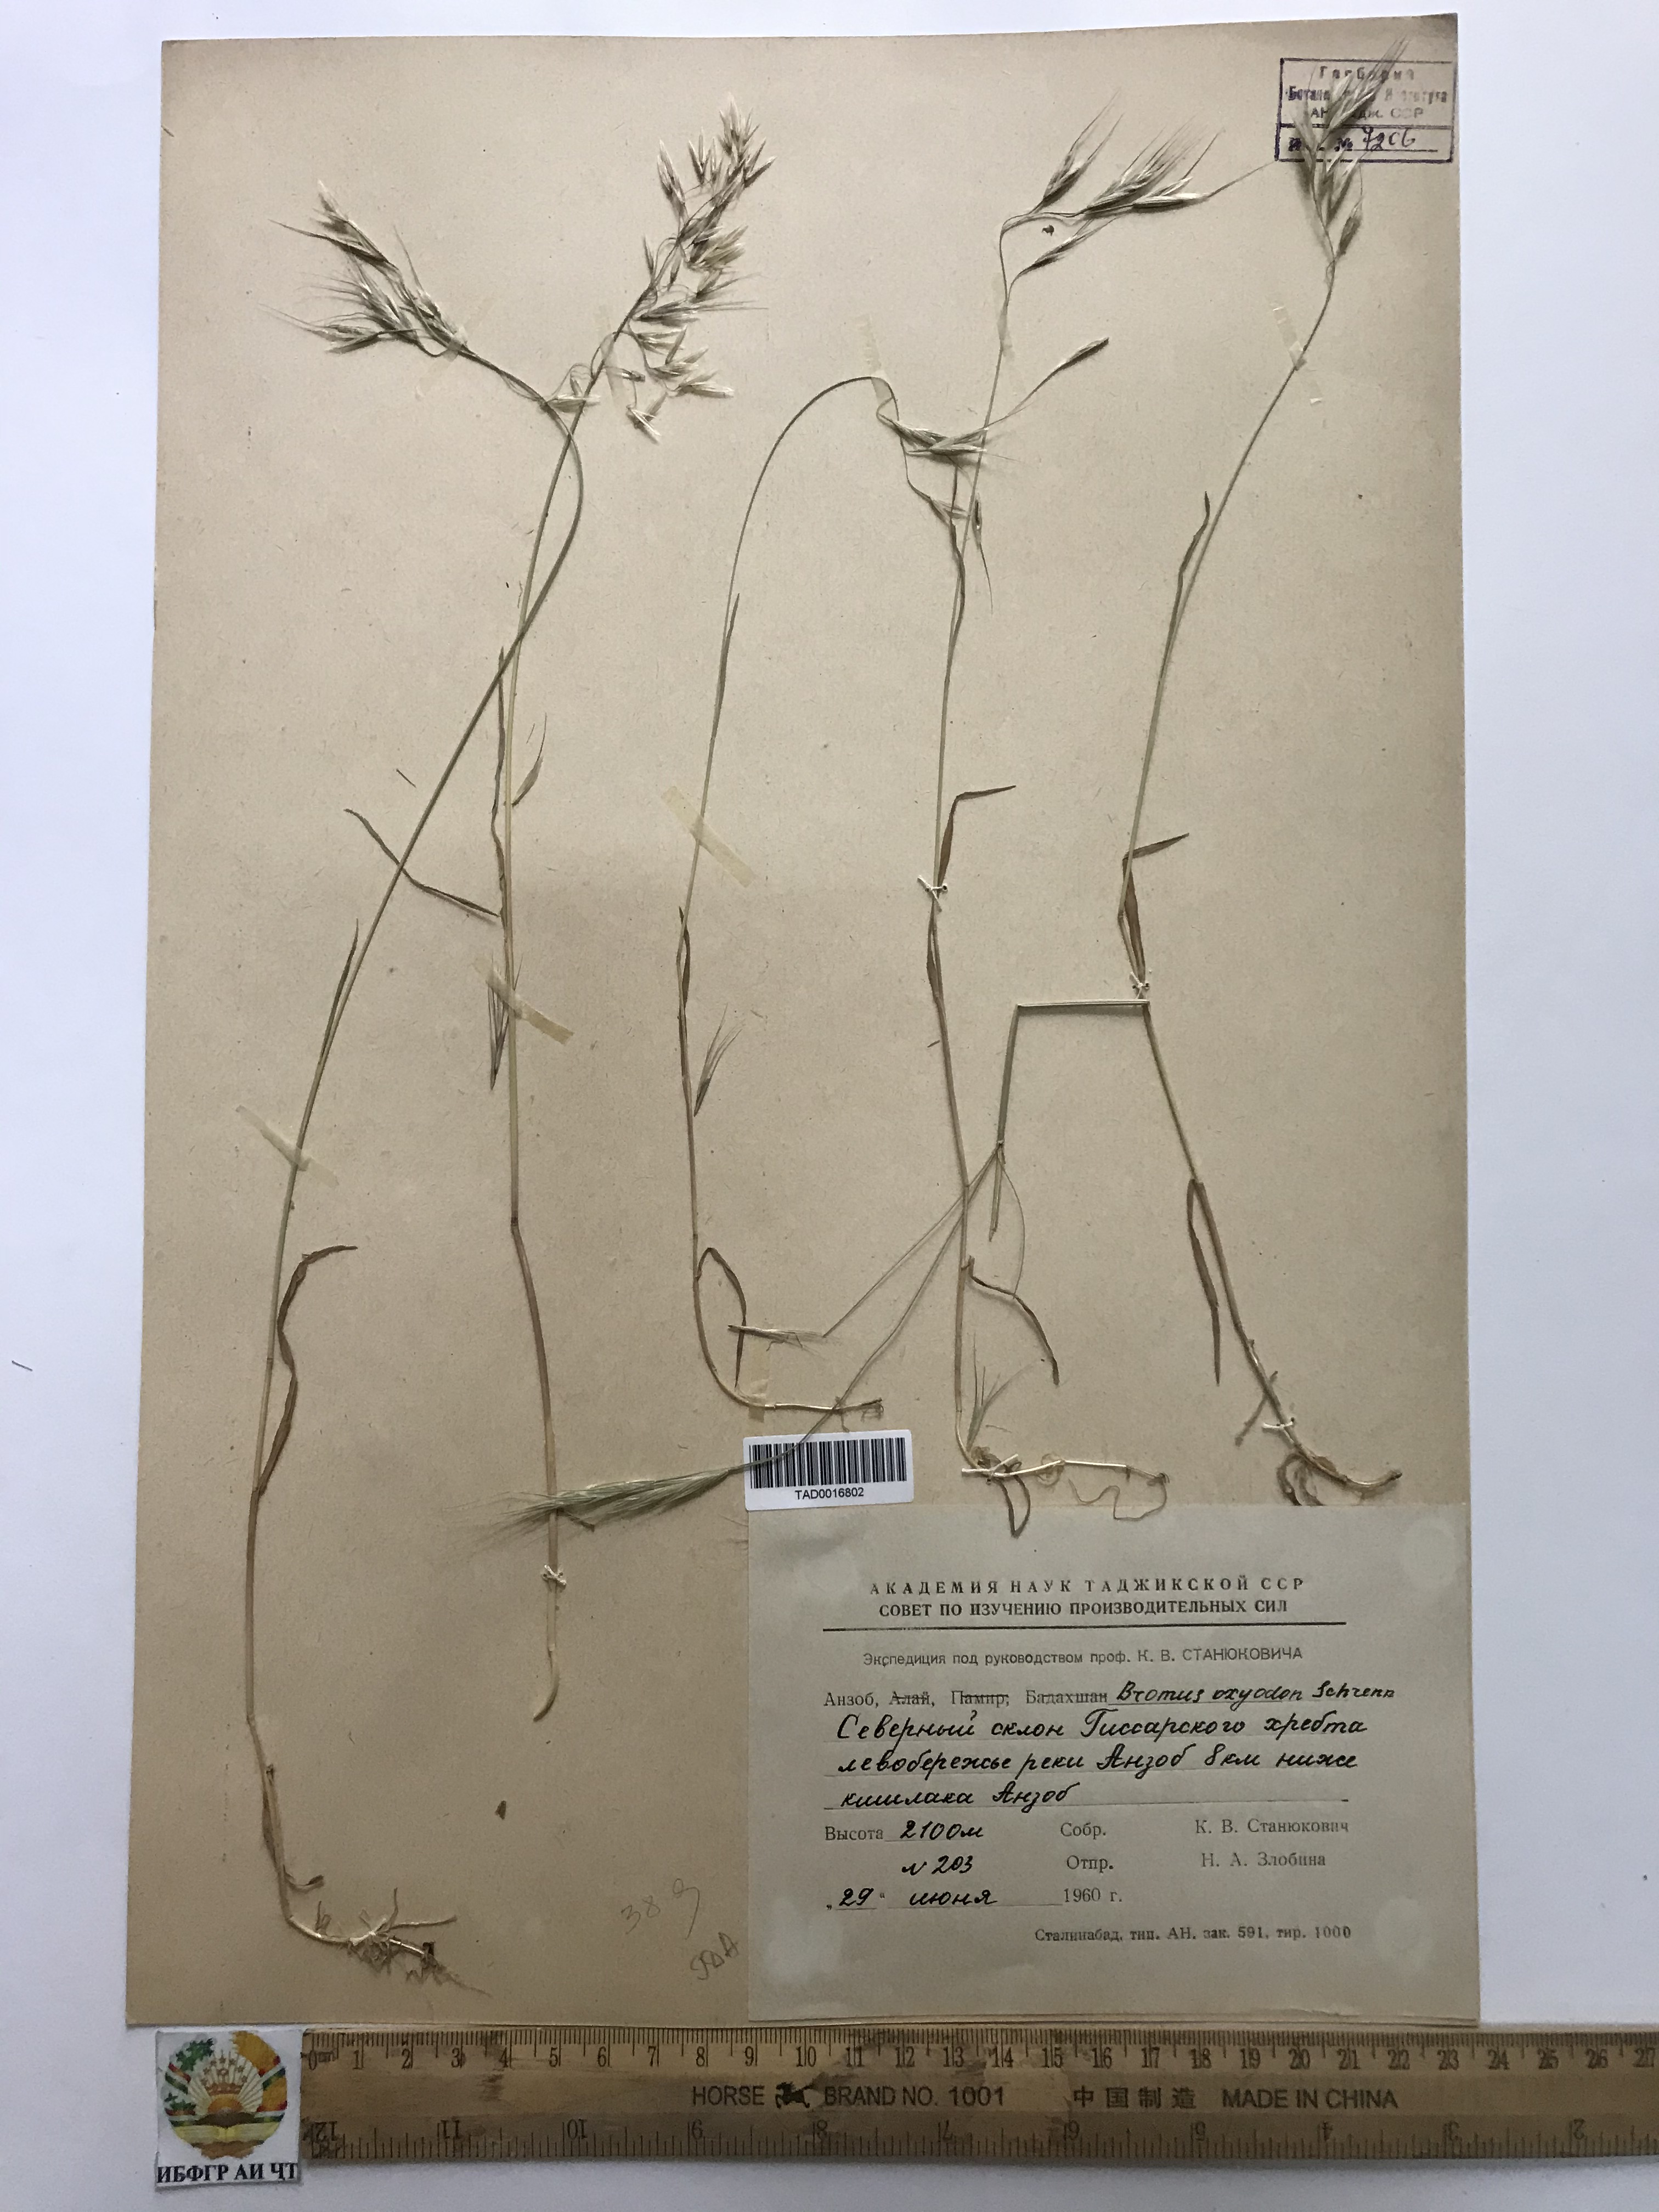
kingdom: Plantae
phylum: Tracheophyta
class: Liliopsida
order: Poales
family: Poaceae
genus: Bromus
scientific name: Bromus oxyodon
